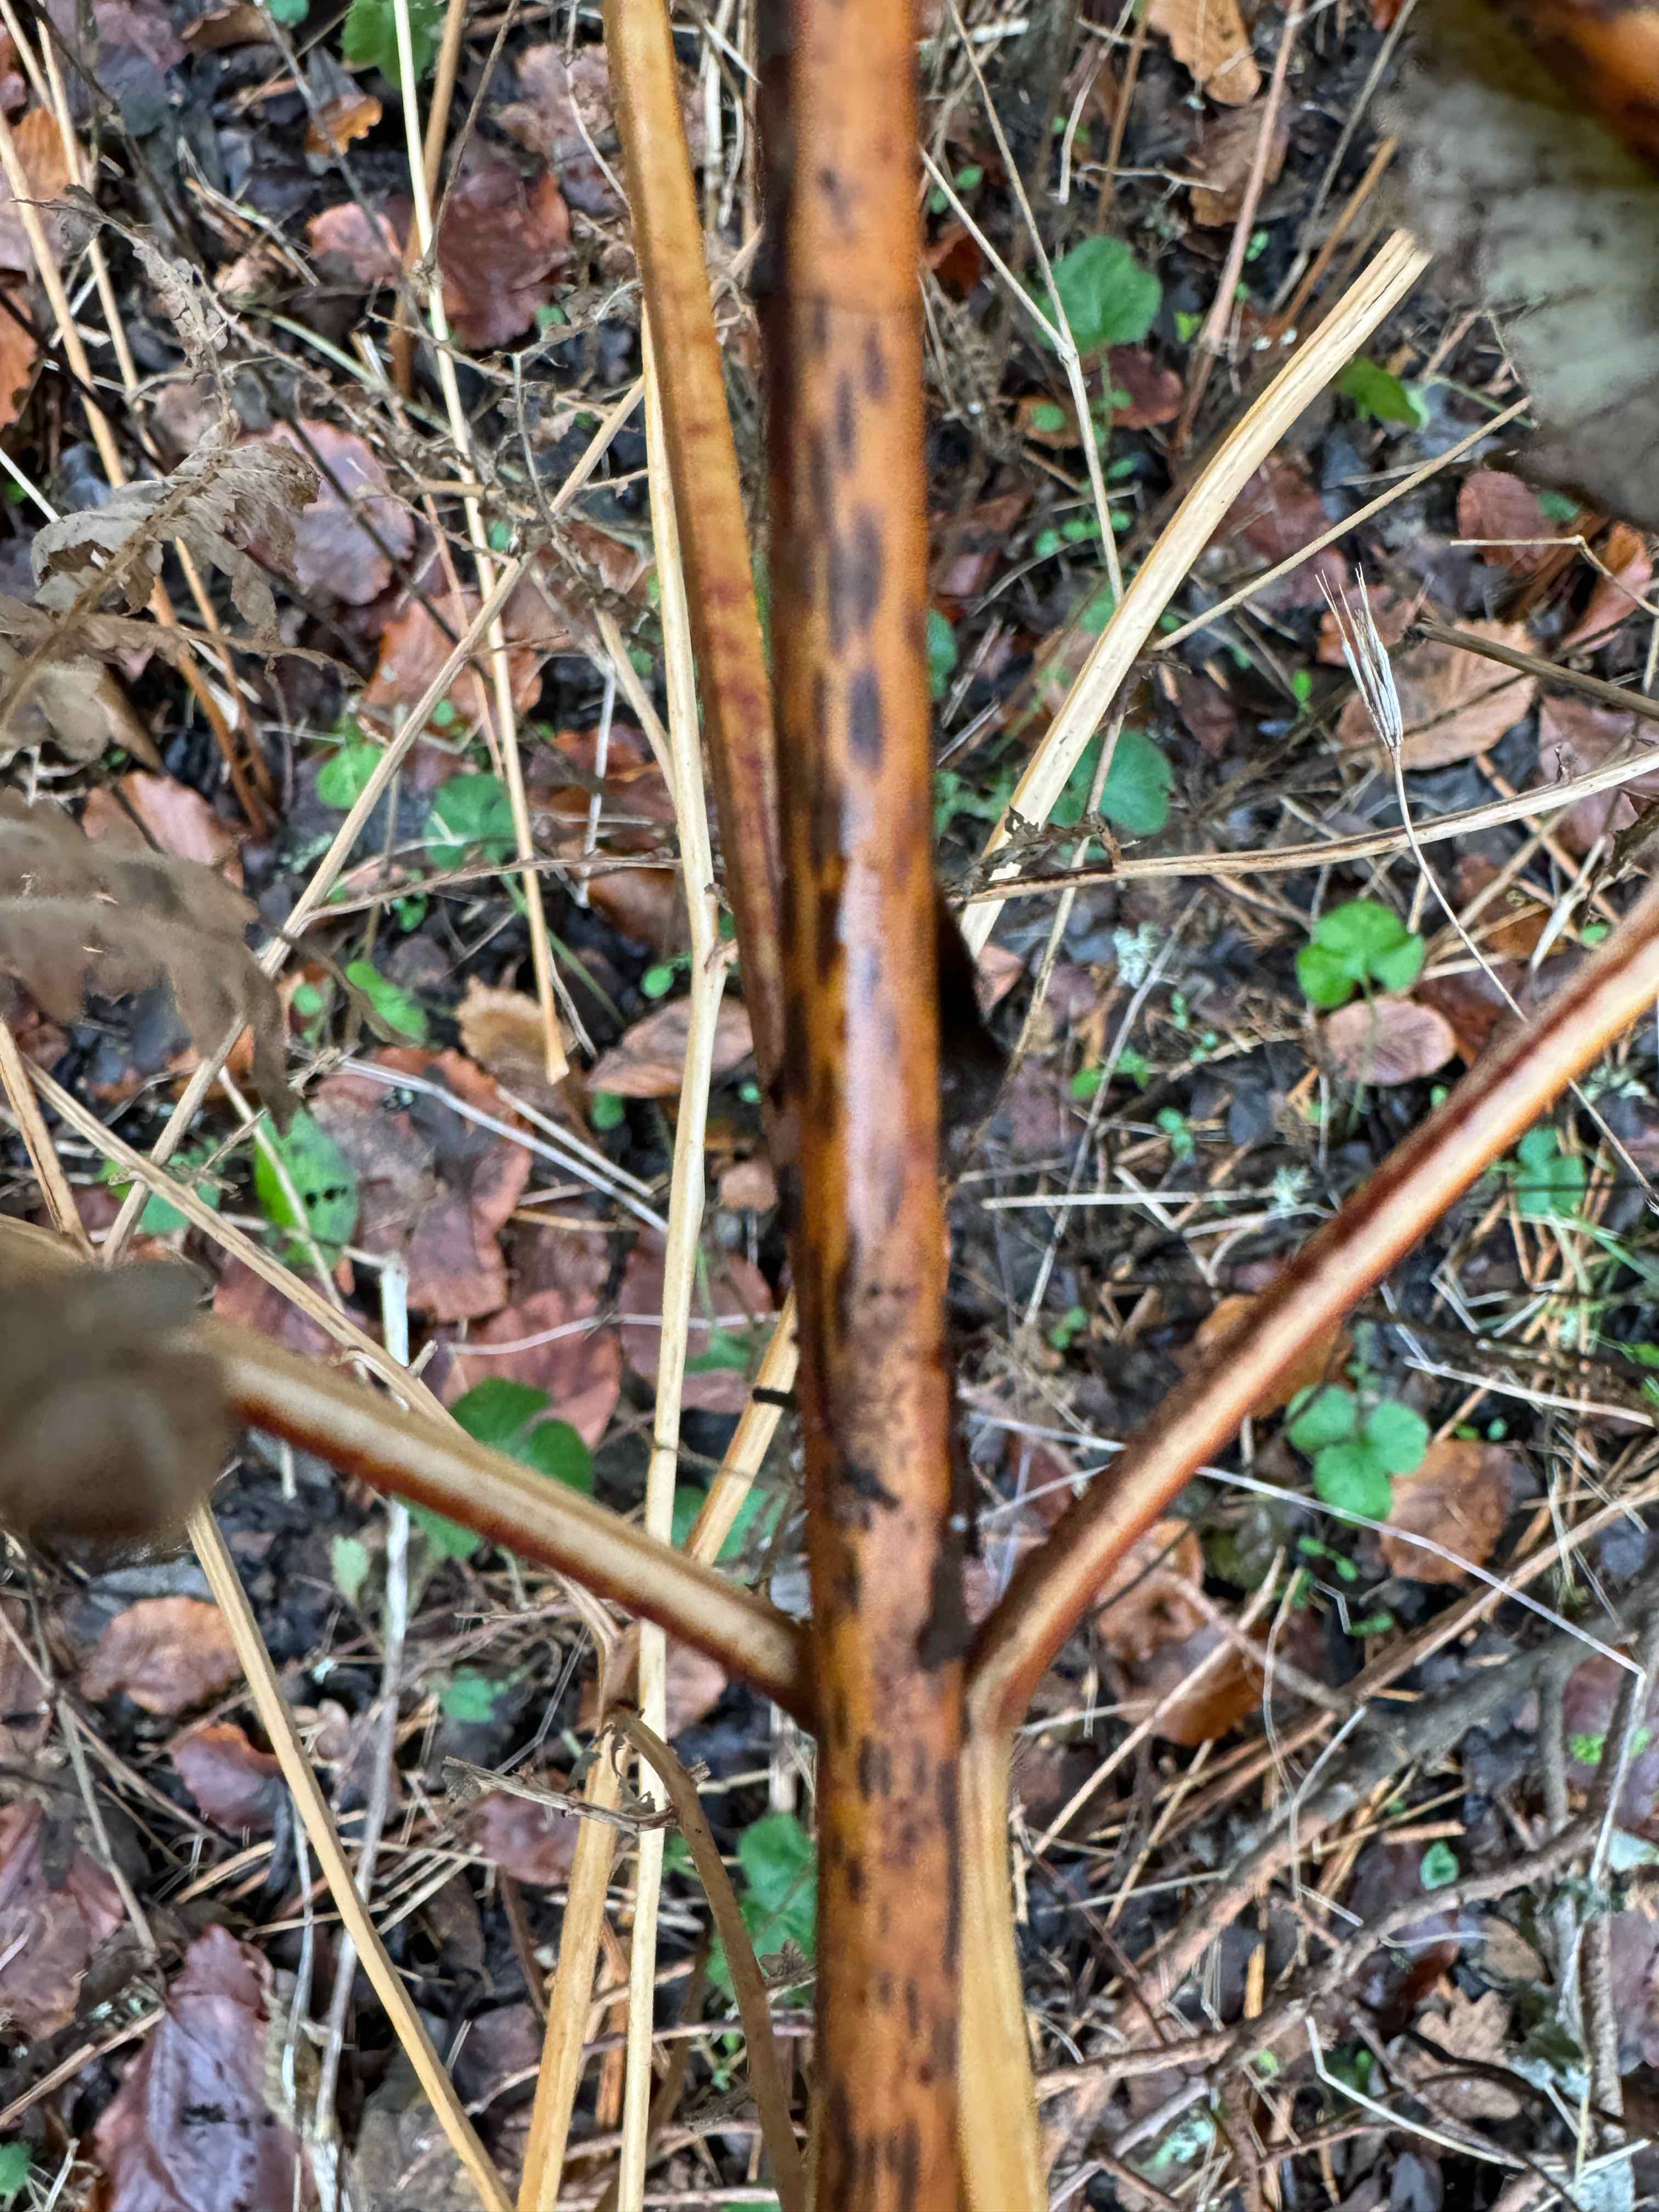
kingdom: Fungi
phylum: Ascomycota
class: Dothideomycetes
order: Pleosporales
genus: Rhopographus
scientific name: Rhopographus filicinus
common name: Bracken map
